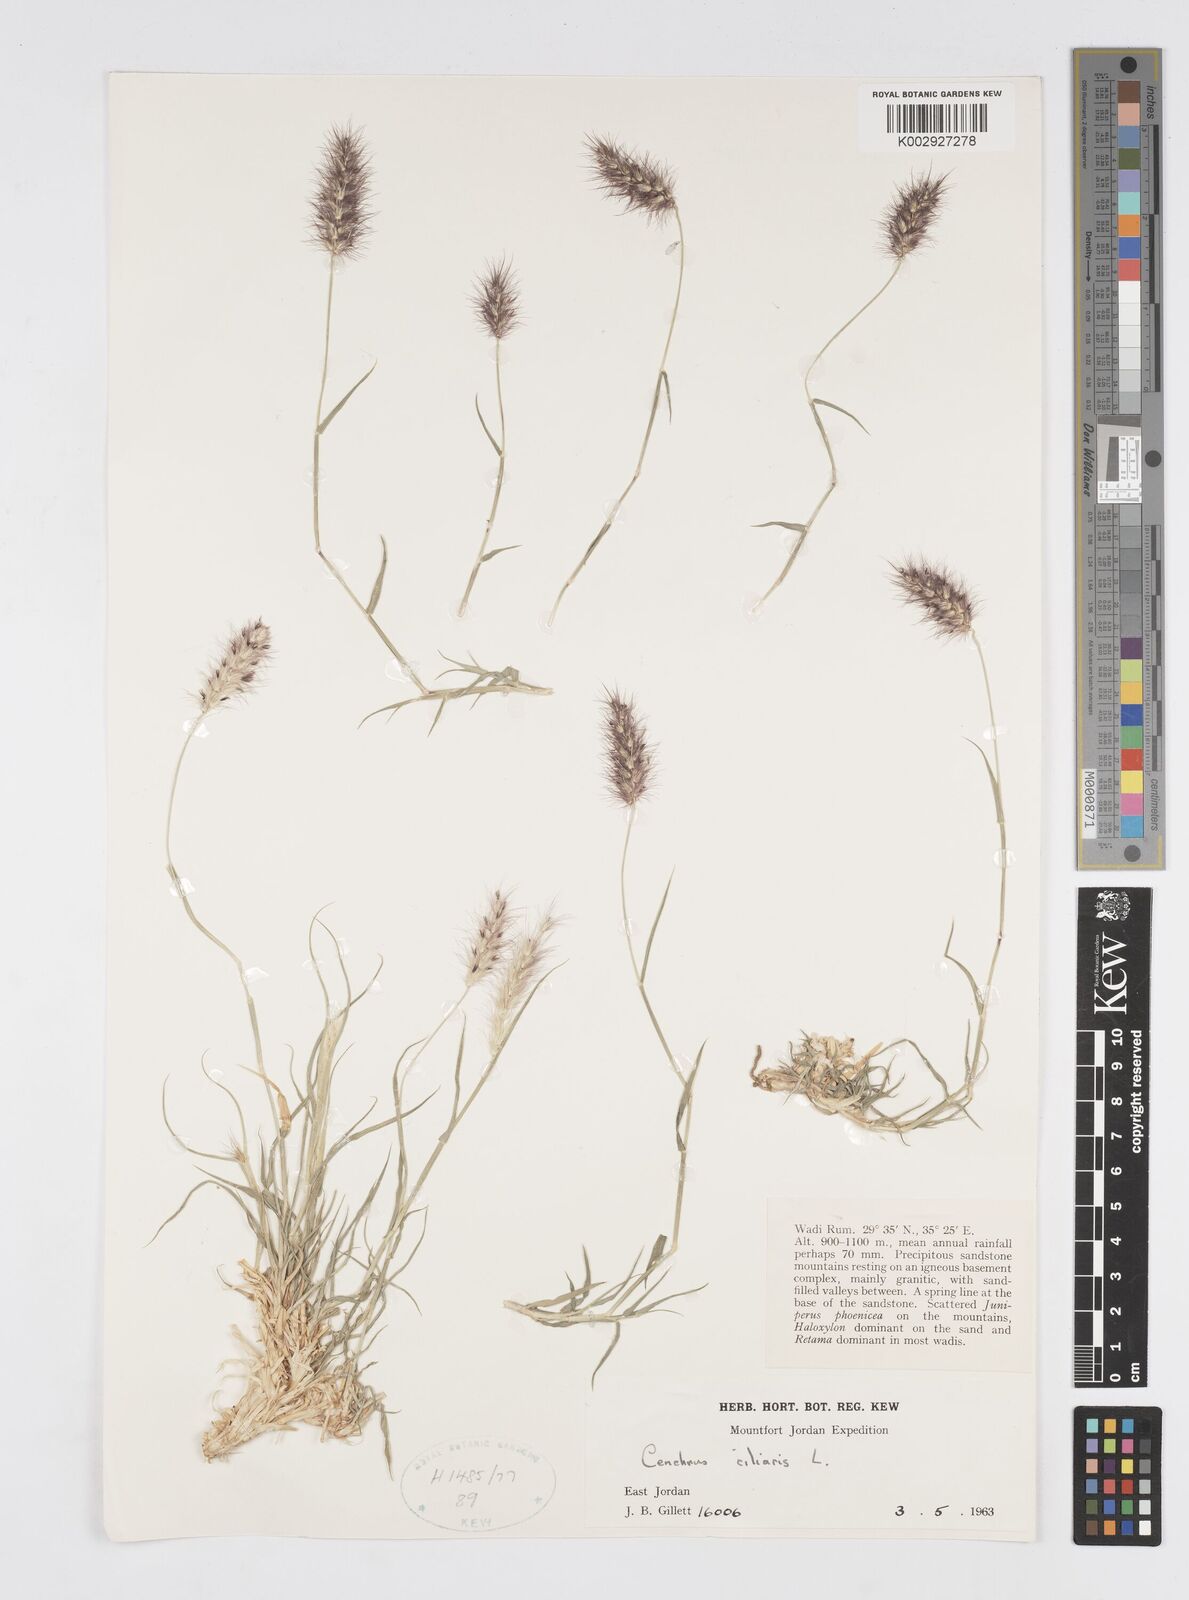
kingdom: Plantae
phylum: Tracheophyta
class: Liliopsida
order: Poales
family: Poaceae
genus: Cenchrus
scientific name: Cenchrus ciliaris
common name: Buffelgrass
